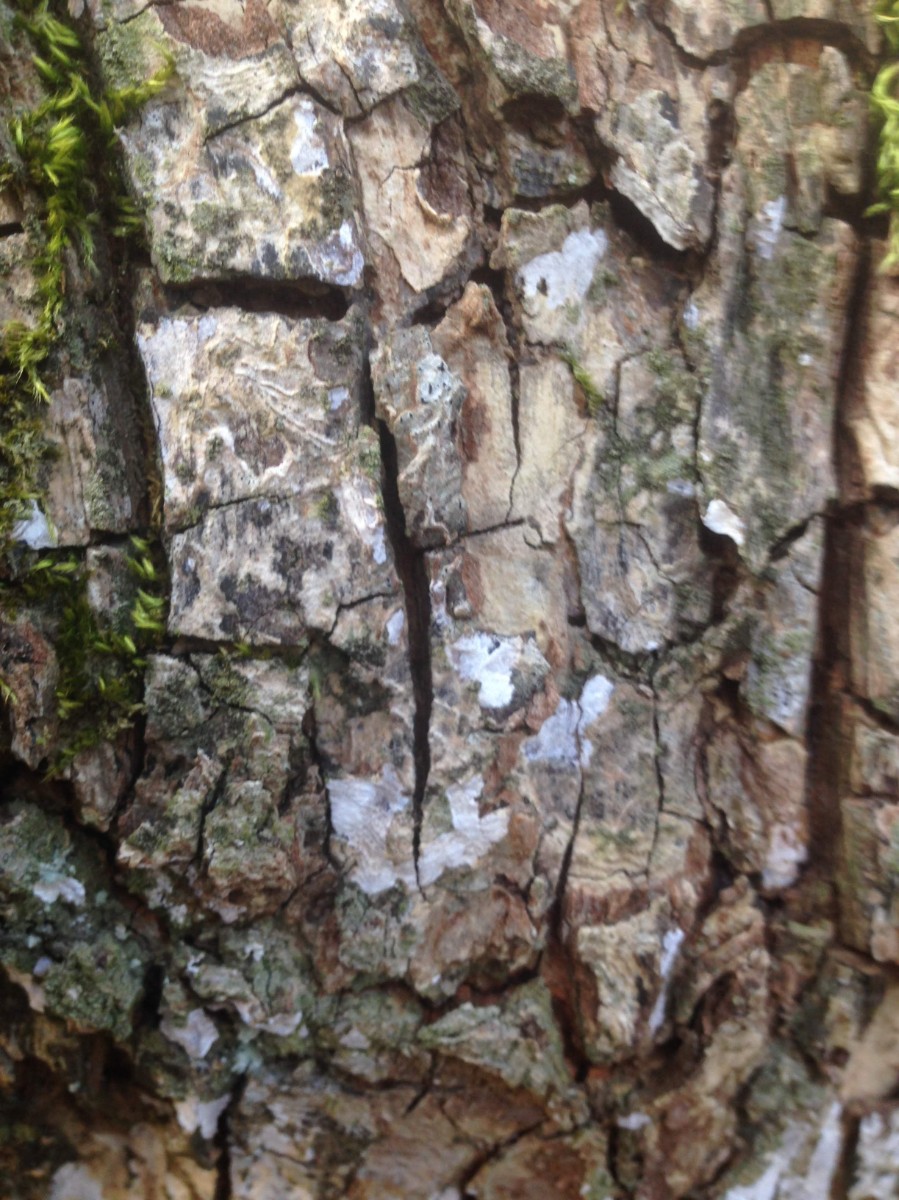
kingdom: Fungi
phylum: Basidiomycota
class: Agaricomycetes
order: Agaricales
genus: Dendrothele
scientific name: Dendrothele acerina
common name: navr-kalkplet
